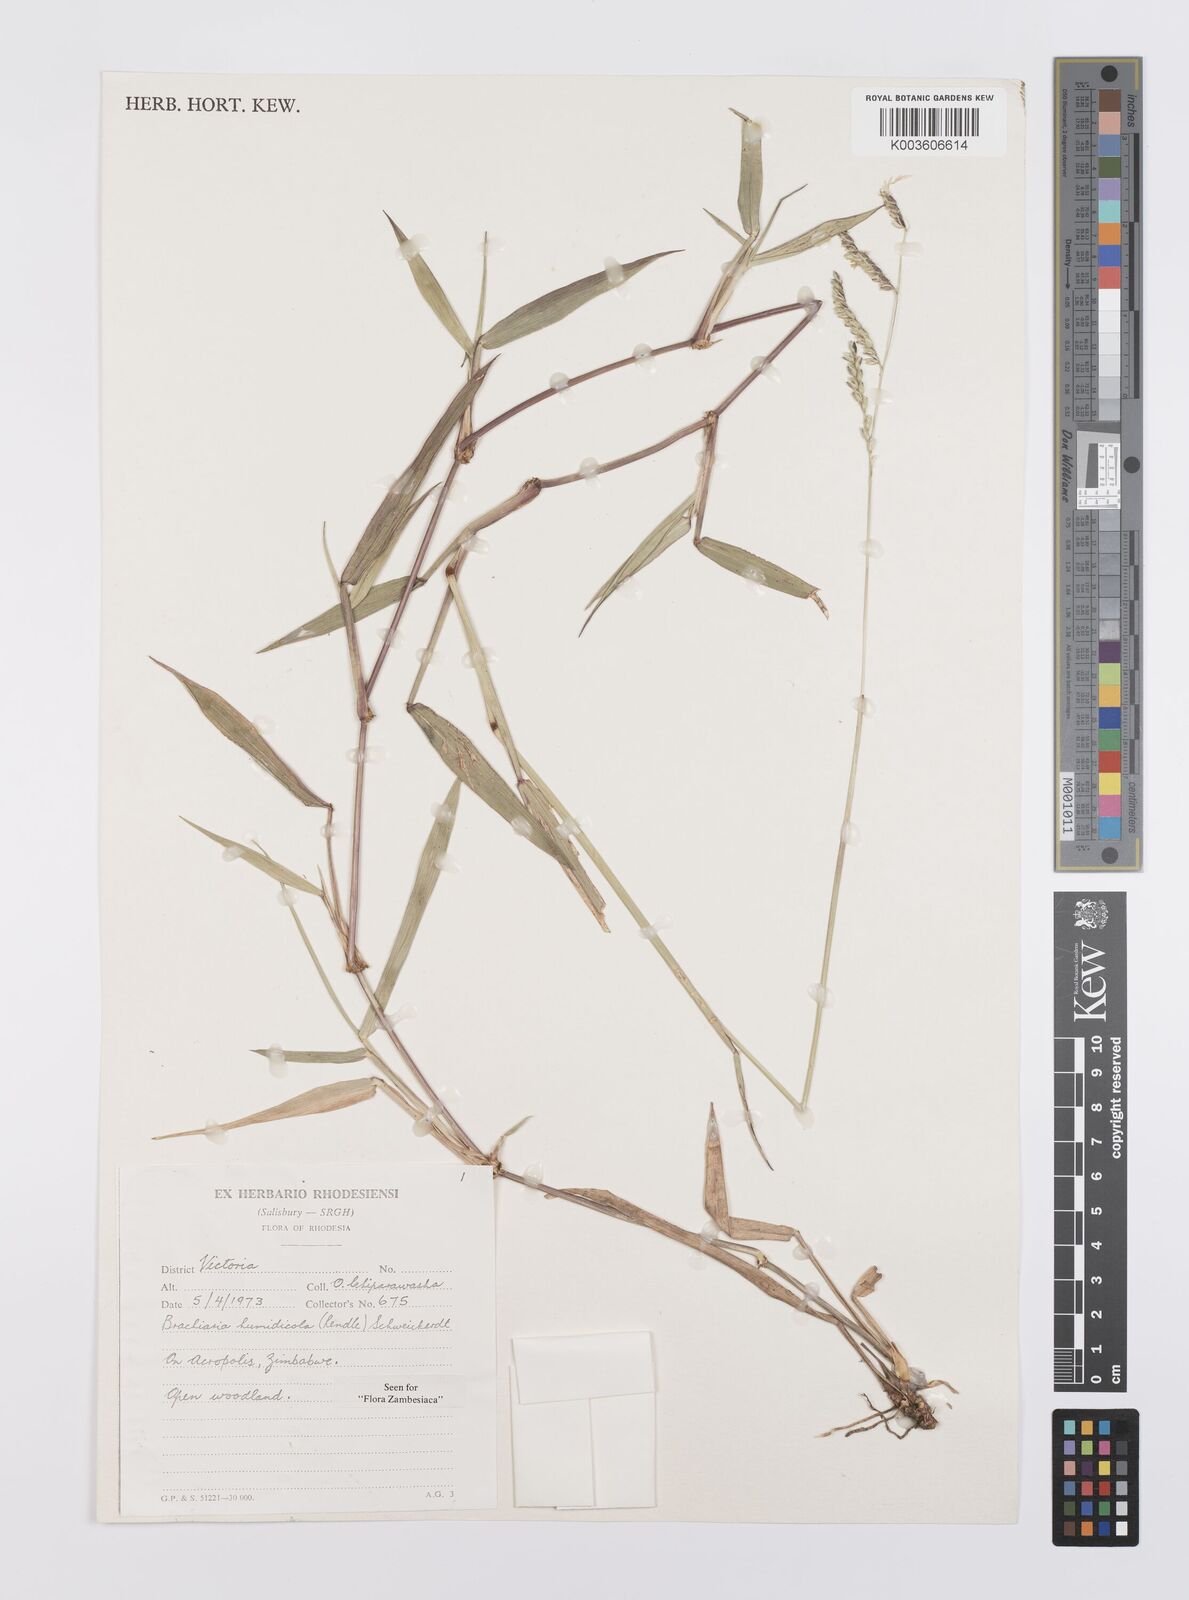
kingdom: Plantae
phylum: Tracheophyta
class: Liliopsida
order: Poales
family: Poaceae
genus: Urochloa
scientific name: Urochloa dictyoneura
